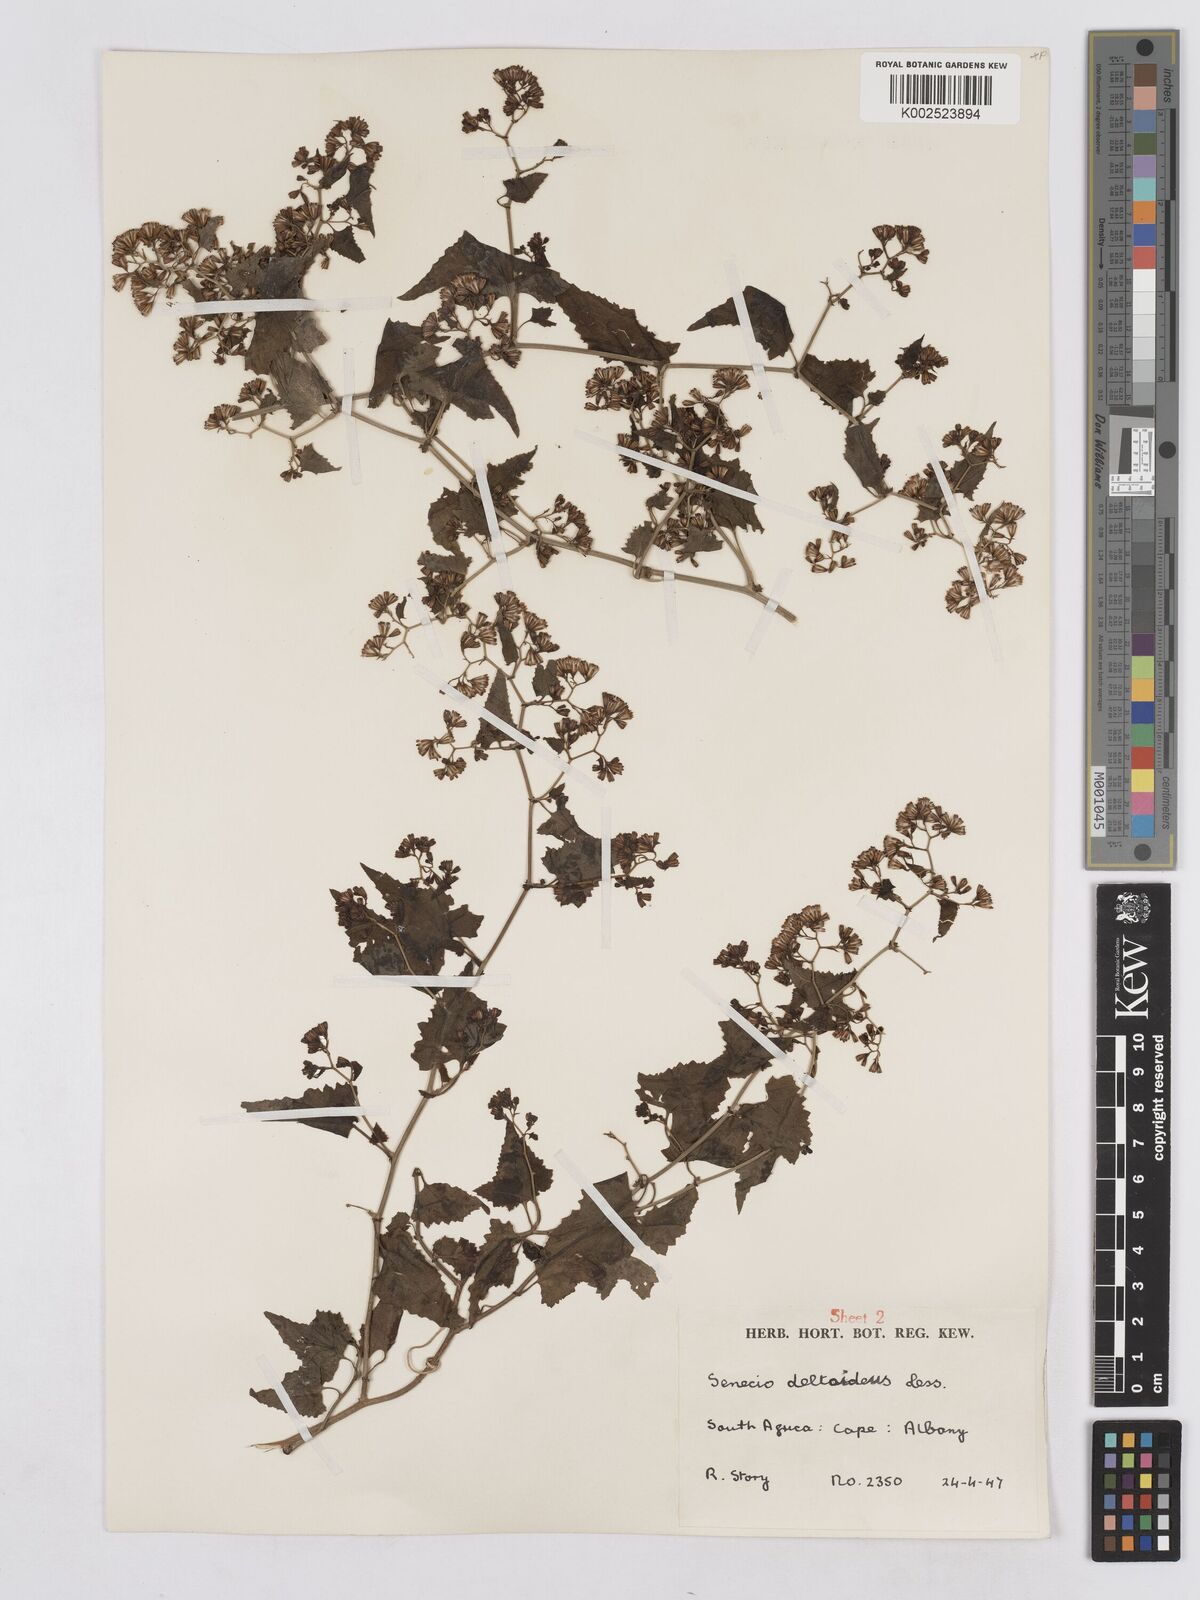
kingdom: Plantae
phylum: Tracheophyta
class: Magnoliopsida
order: Asterales
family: Asteraceae
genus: Senecio
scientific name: Senecio deltoideus
